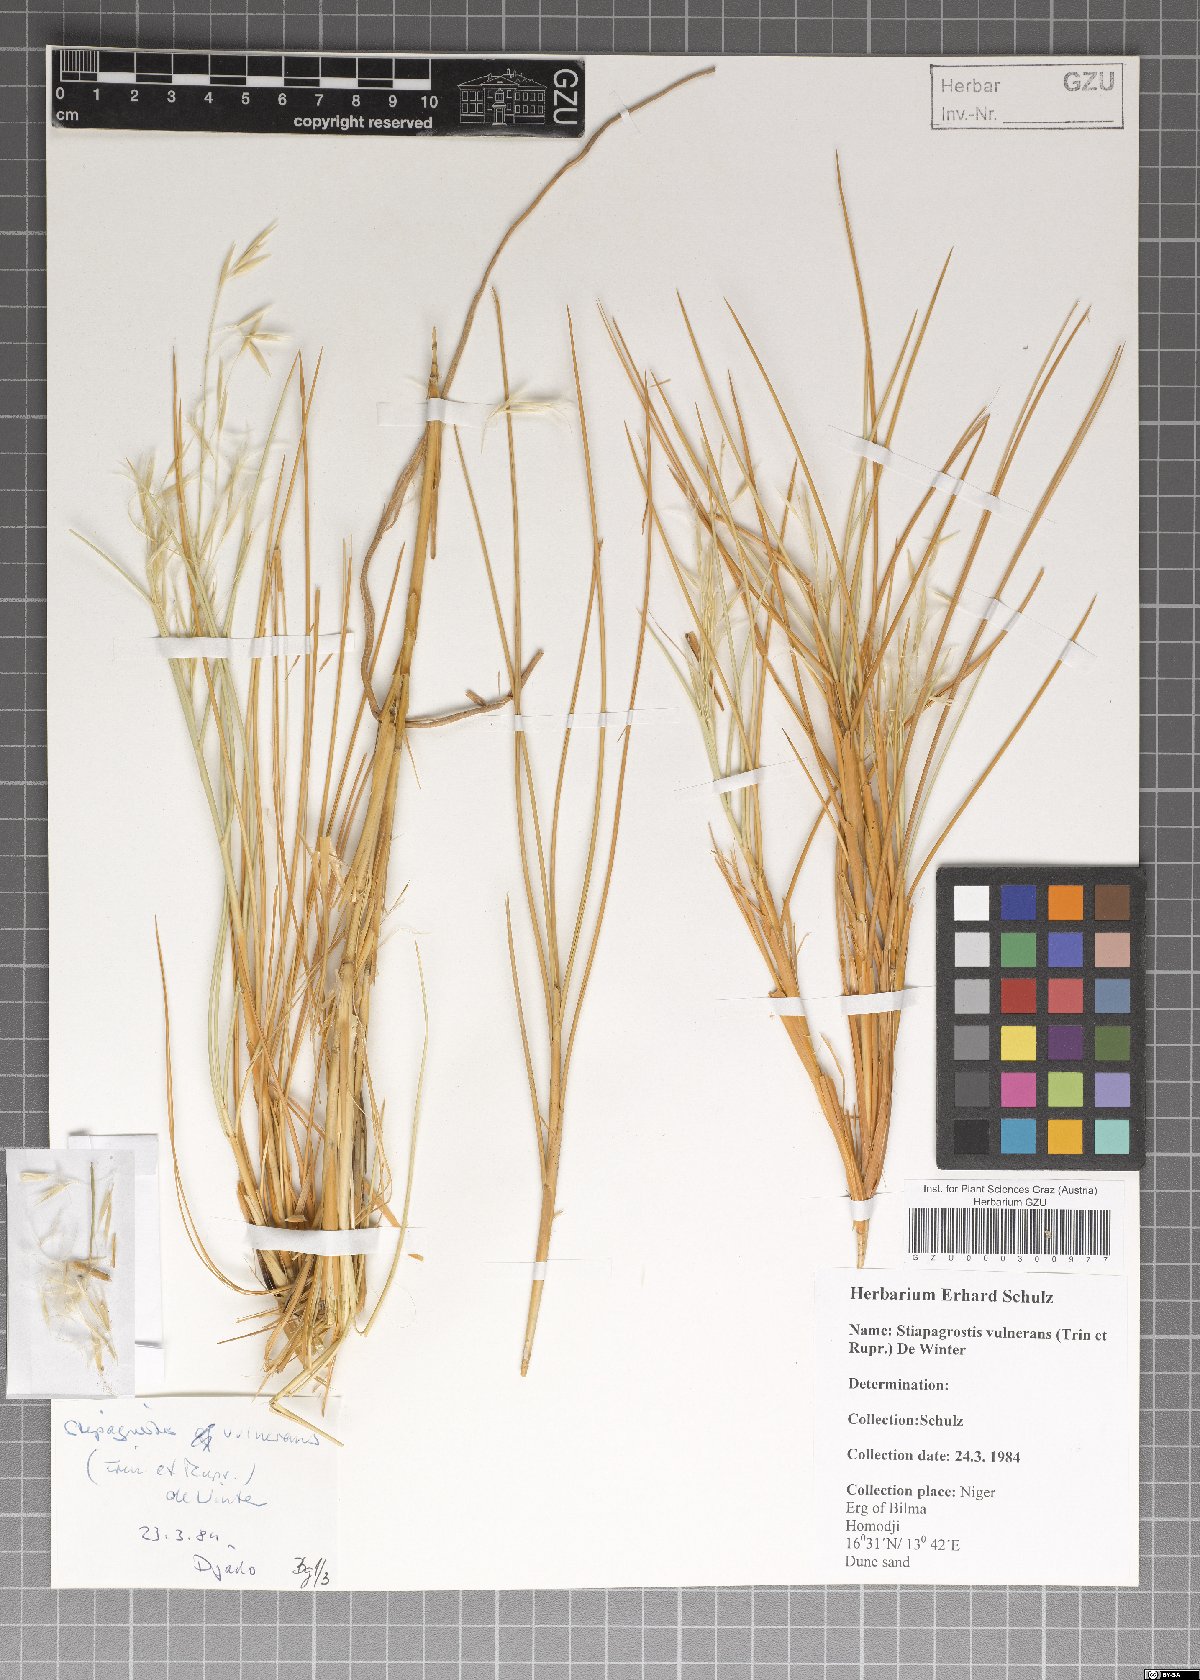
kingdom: Plantae
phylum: Tracheophyta
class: Liliopsida
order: Poales
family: Poaceae
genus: Stipagrostis
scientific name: Stipagrostis vulnerans
